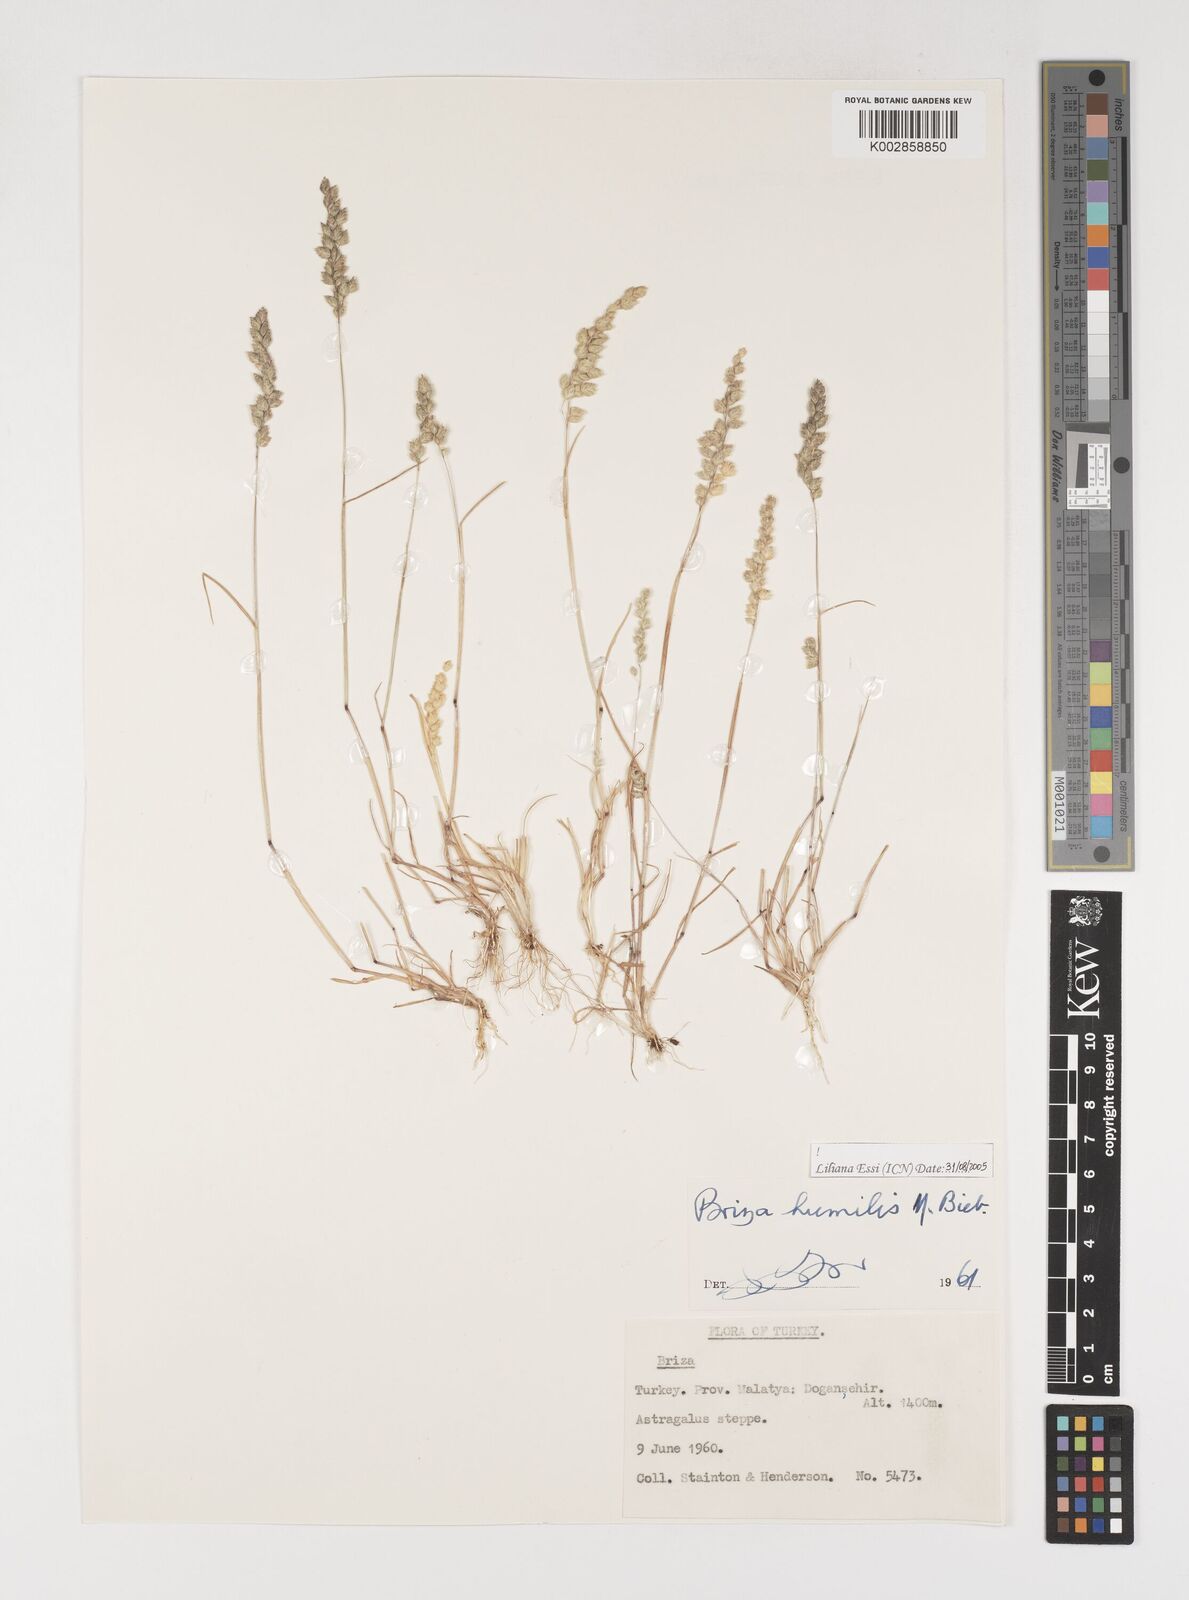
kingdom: Plantae
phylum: Tracheophyta
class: Liliopsida
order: Poales
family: Poaceae
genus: Briza
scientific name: Briza humilis
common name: Spiked quaking grass
